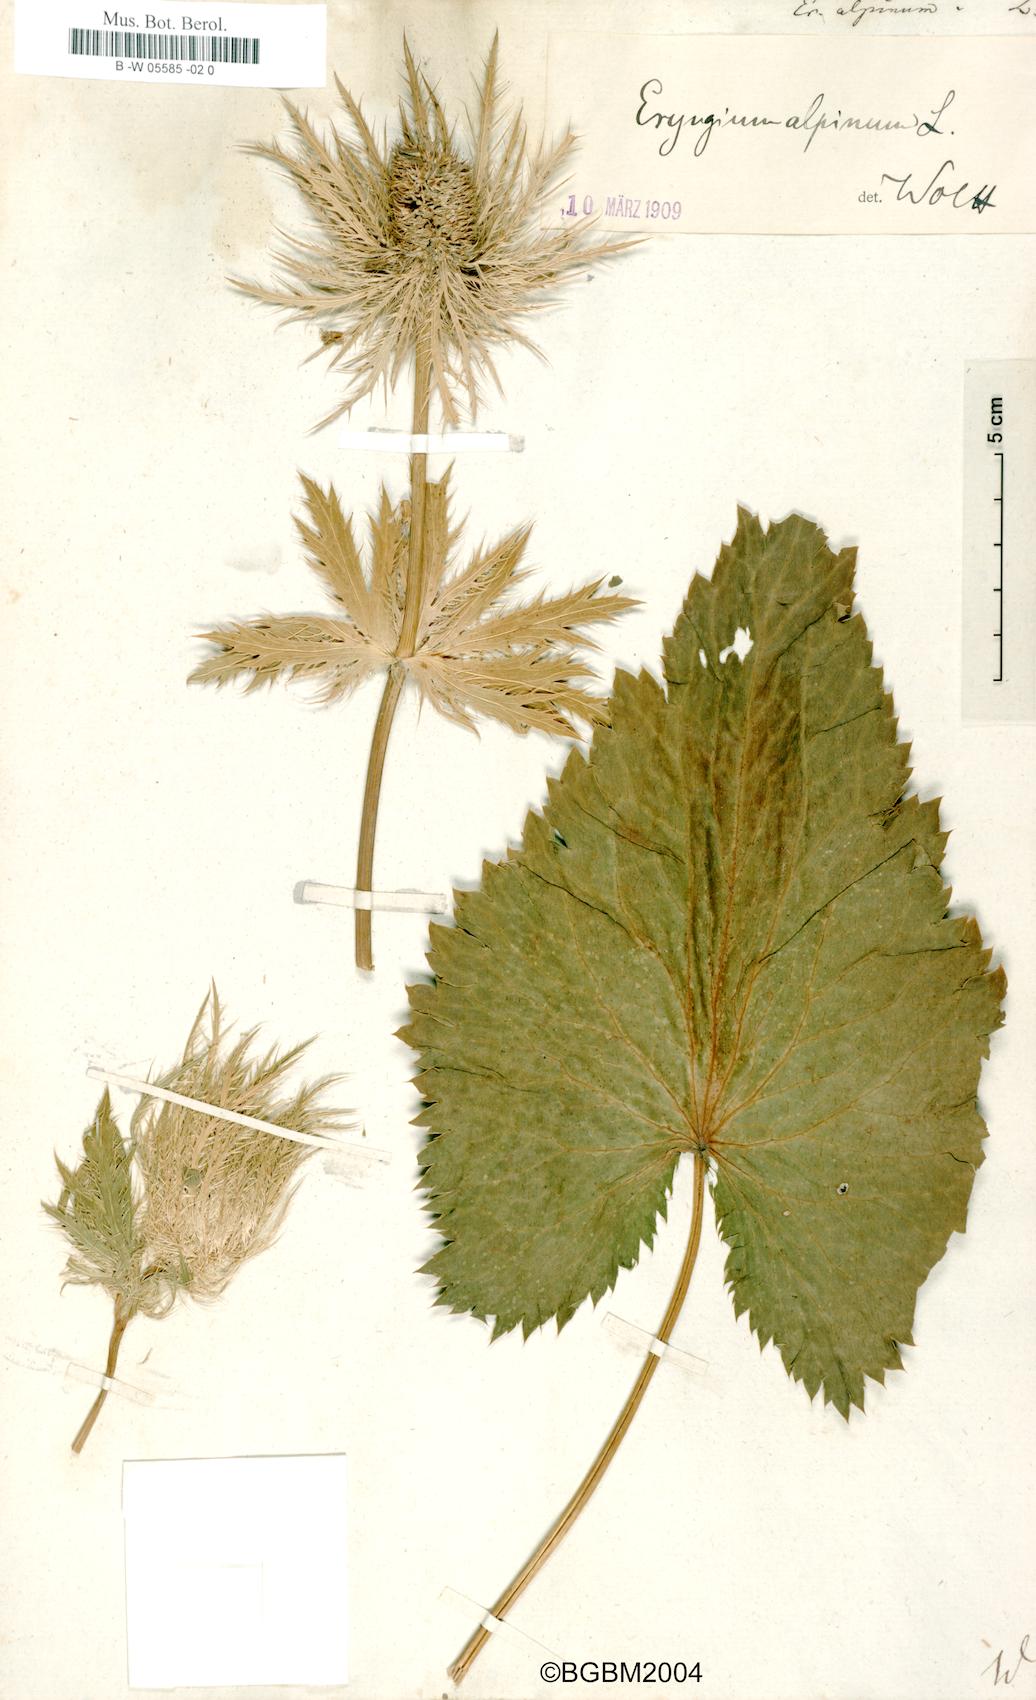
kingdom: Plantae
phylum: Tracheophyta
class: Magnoliopsida
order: Apiales
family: Apiaceae
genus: Eryngium
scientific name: Eryngium alpinum
